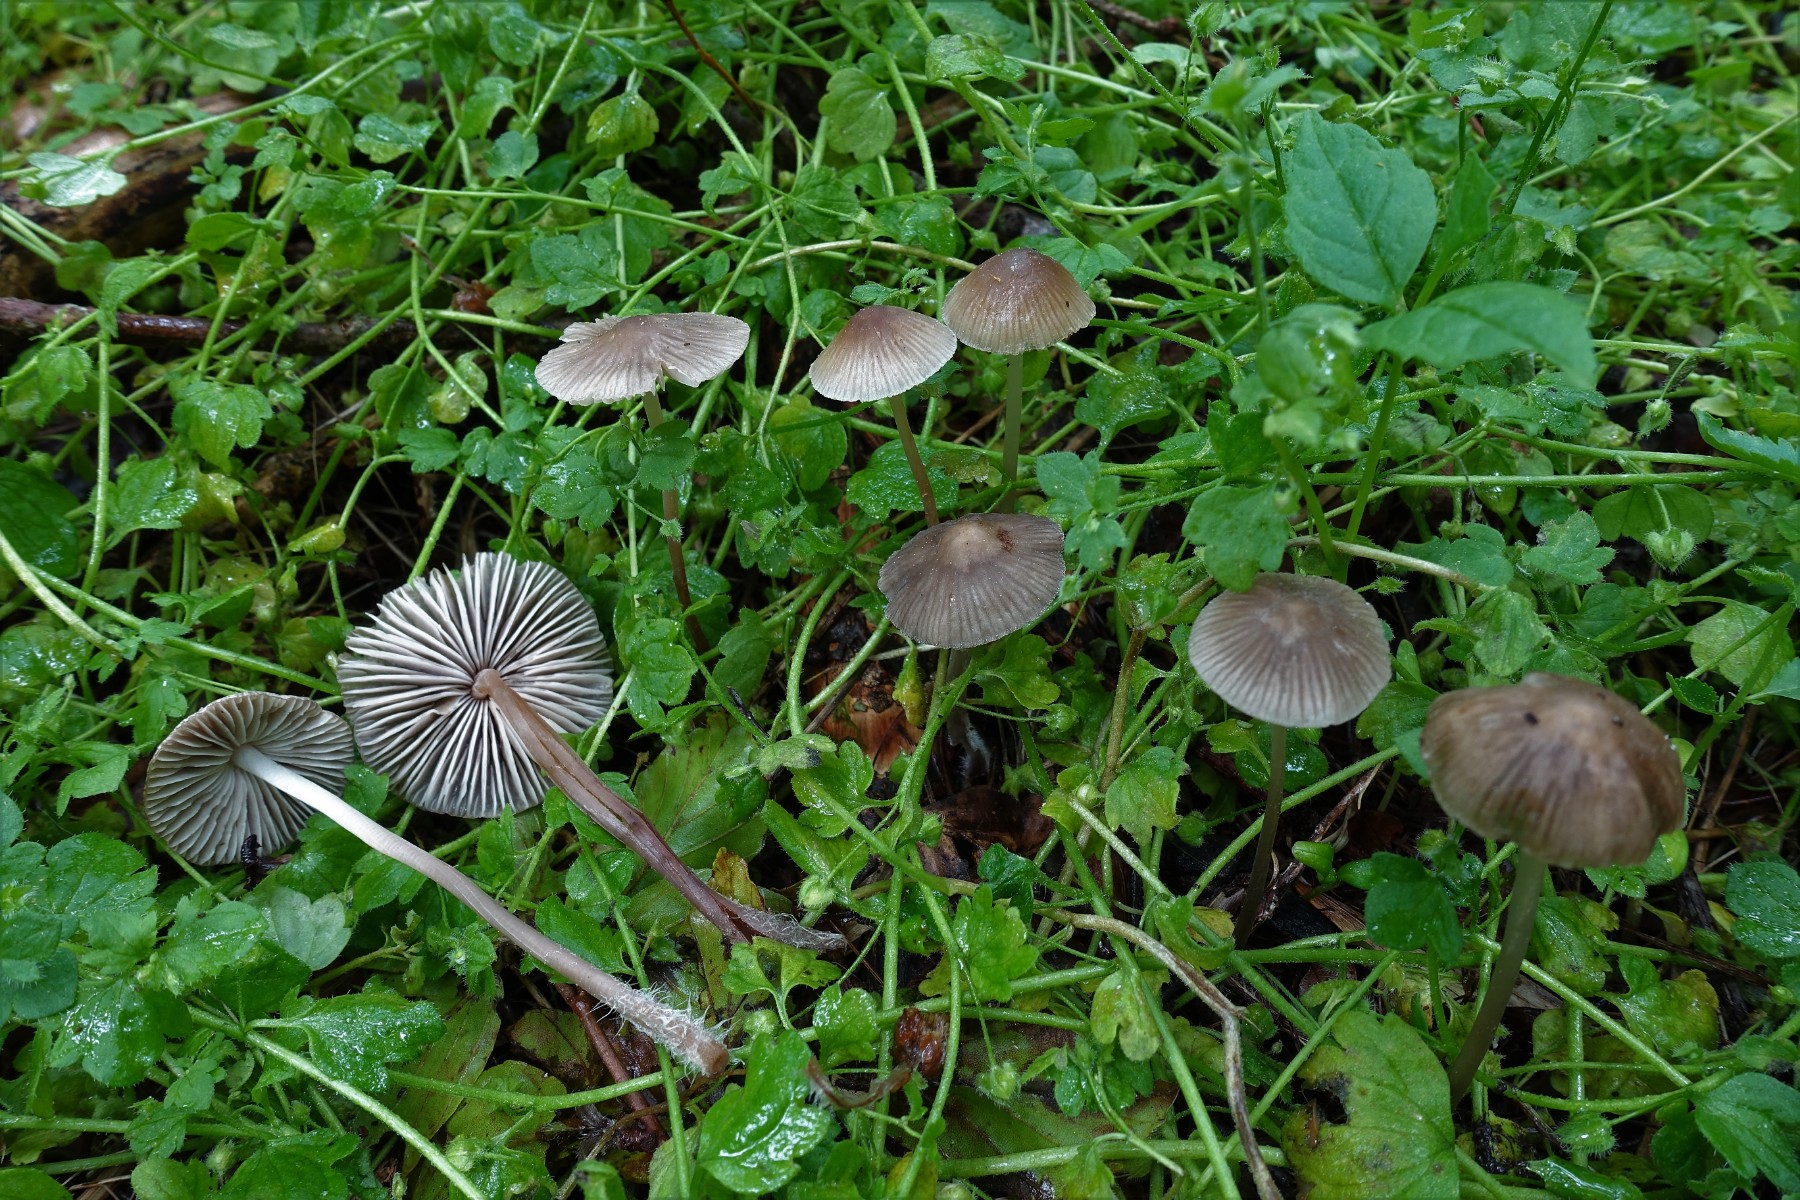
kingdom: Fungi
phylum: Basidiomycota
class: Agaricomycetes
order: Agaricales
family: Mycenaceae
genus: Mycena
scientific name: Mycena leptocephala
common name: klor-huesvamp
